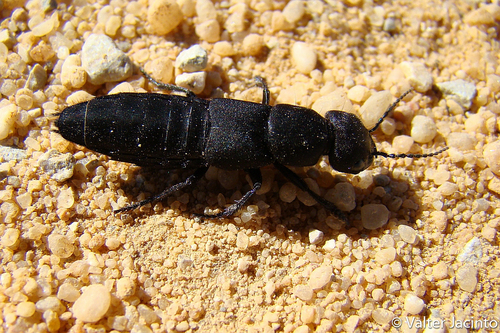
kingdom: Animalia
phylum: Arthropoda
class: Insecta
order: Coleoptera
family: Staphylinidae
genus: Ocypus
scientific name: Ocypus olens
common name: Devil's coach-horse
